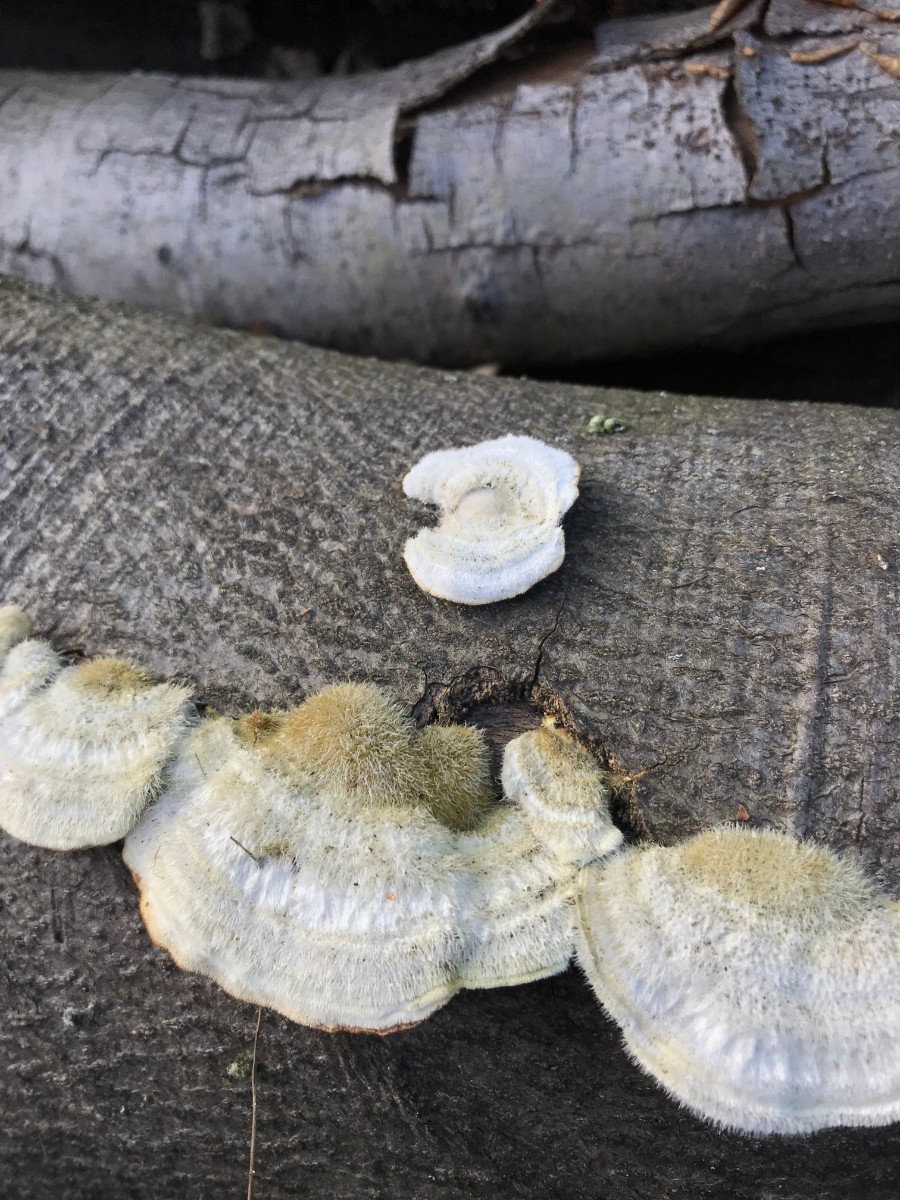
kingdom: Fungi
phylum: Basidiomycota
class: Agaricomycetes
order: Polyporales
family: Polyporaceae
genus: Trametes
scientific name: Trametes hirsuta
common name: håret læderporesvamp
